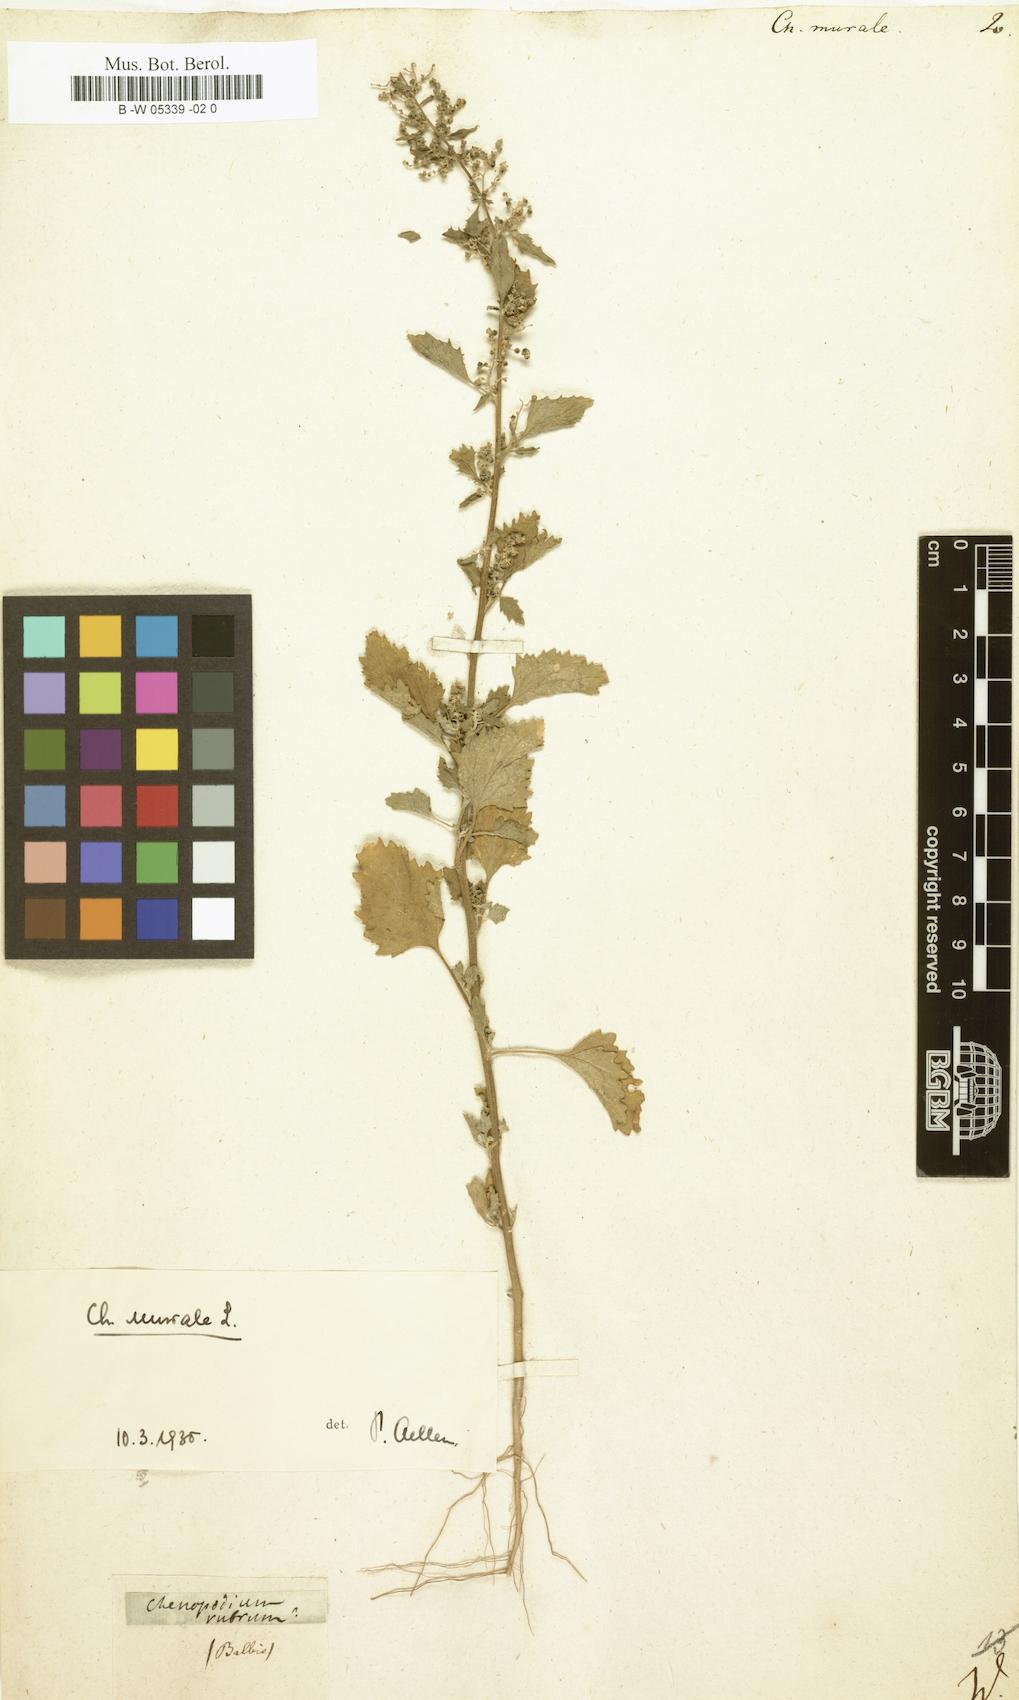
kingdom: Plantae
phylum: Tracheophyta
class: Magnoliopsida
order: Caryophyllales
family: Amaranthaceae
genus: Chenopodiastrum
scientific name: Chenopodiastrum murale
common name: Sowbane
